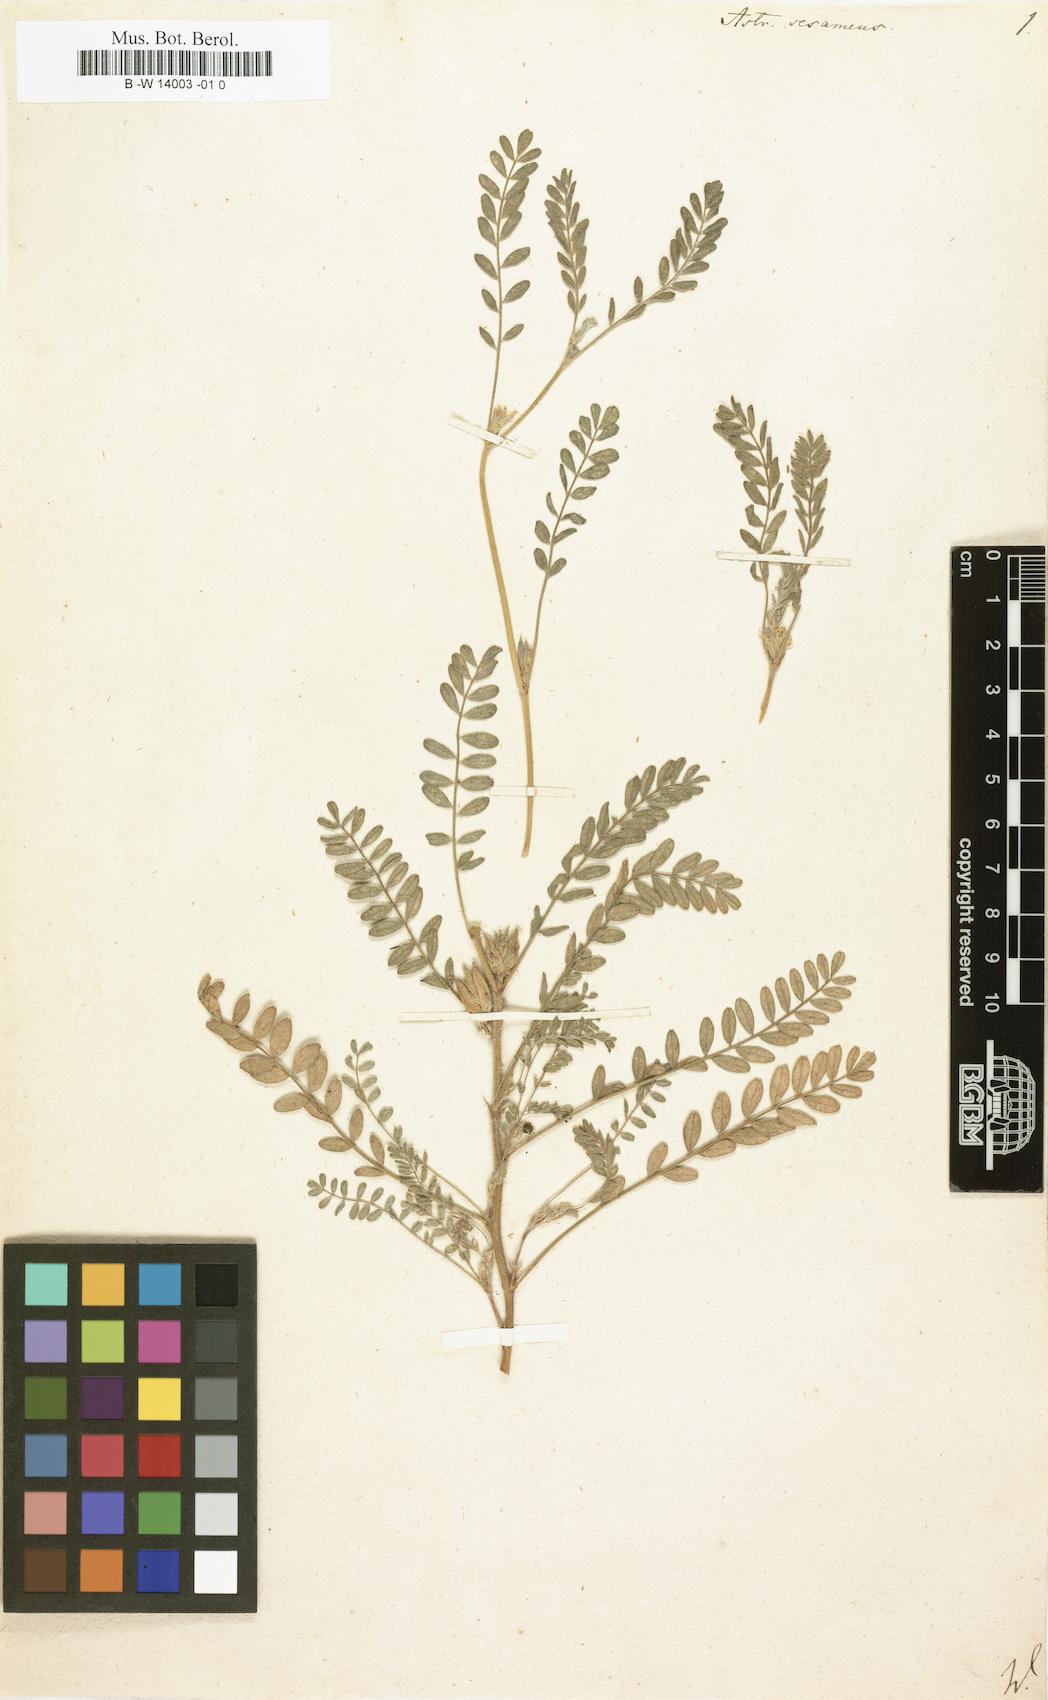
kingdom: Plantae
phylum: Tracheophyta
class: Magnoliopsida
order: Fabales
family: Fabaceae
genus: Astragalus
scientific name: Astragalus sesameus
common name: Purple milk-vetch
